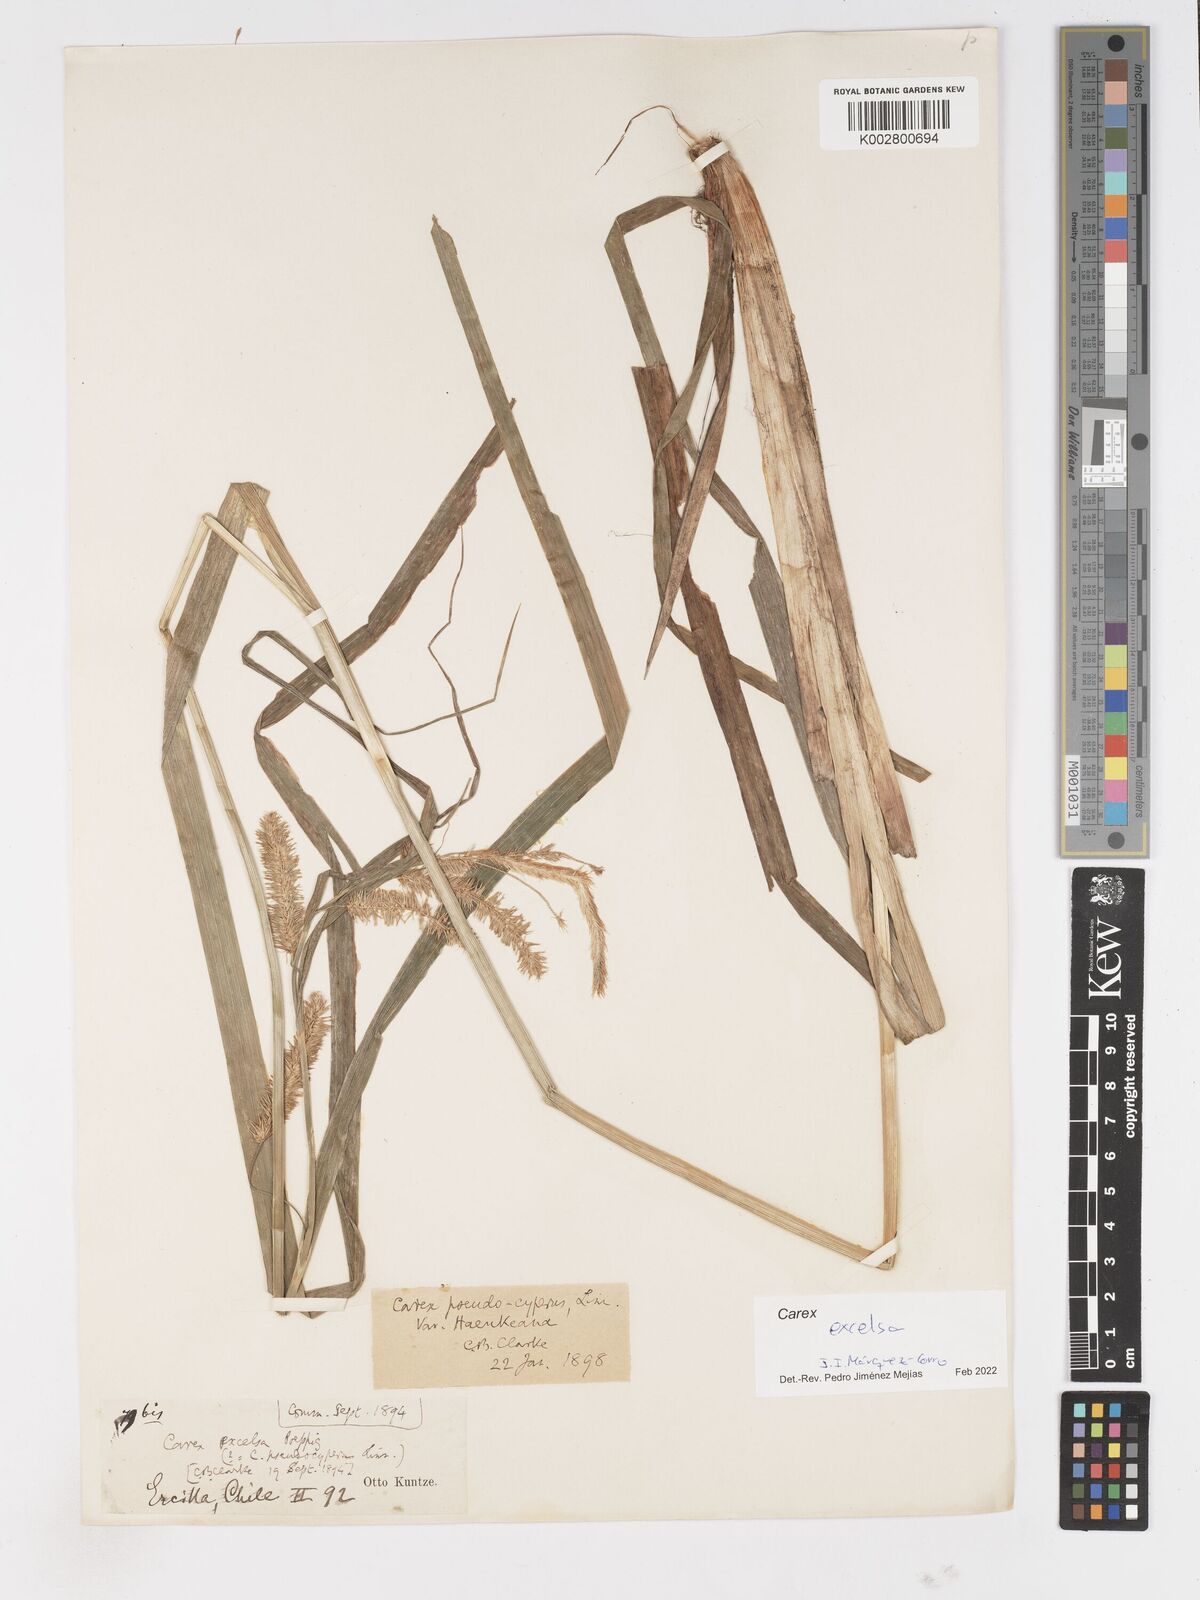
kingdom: Plantae
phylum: Tracheophyta
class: Liliopsida
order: Poales
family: Cyperaceae
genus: Carex
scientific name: Carex excelsa
